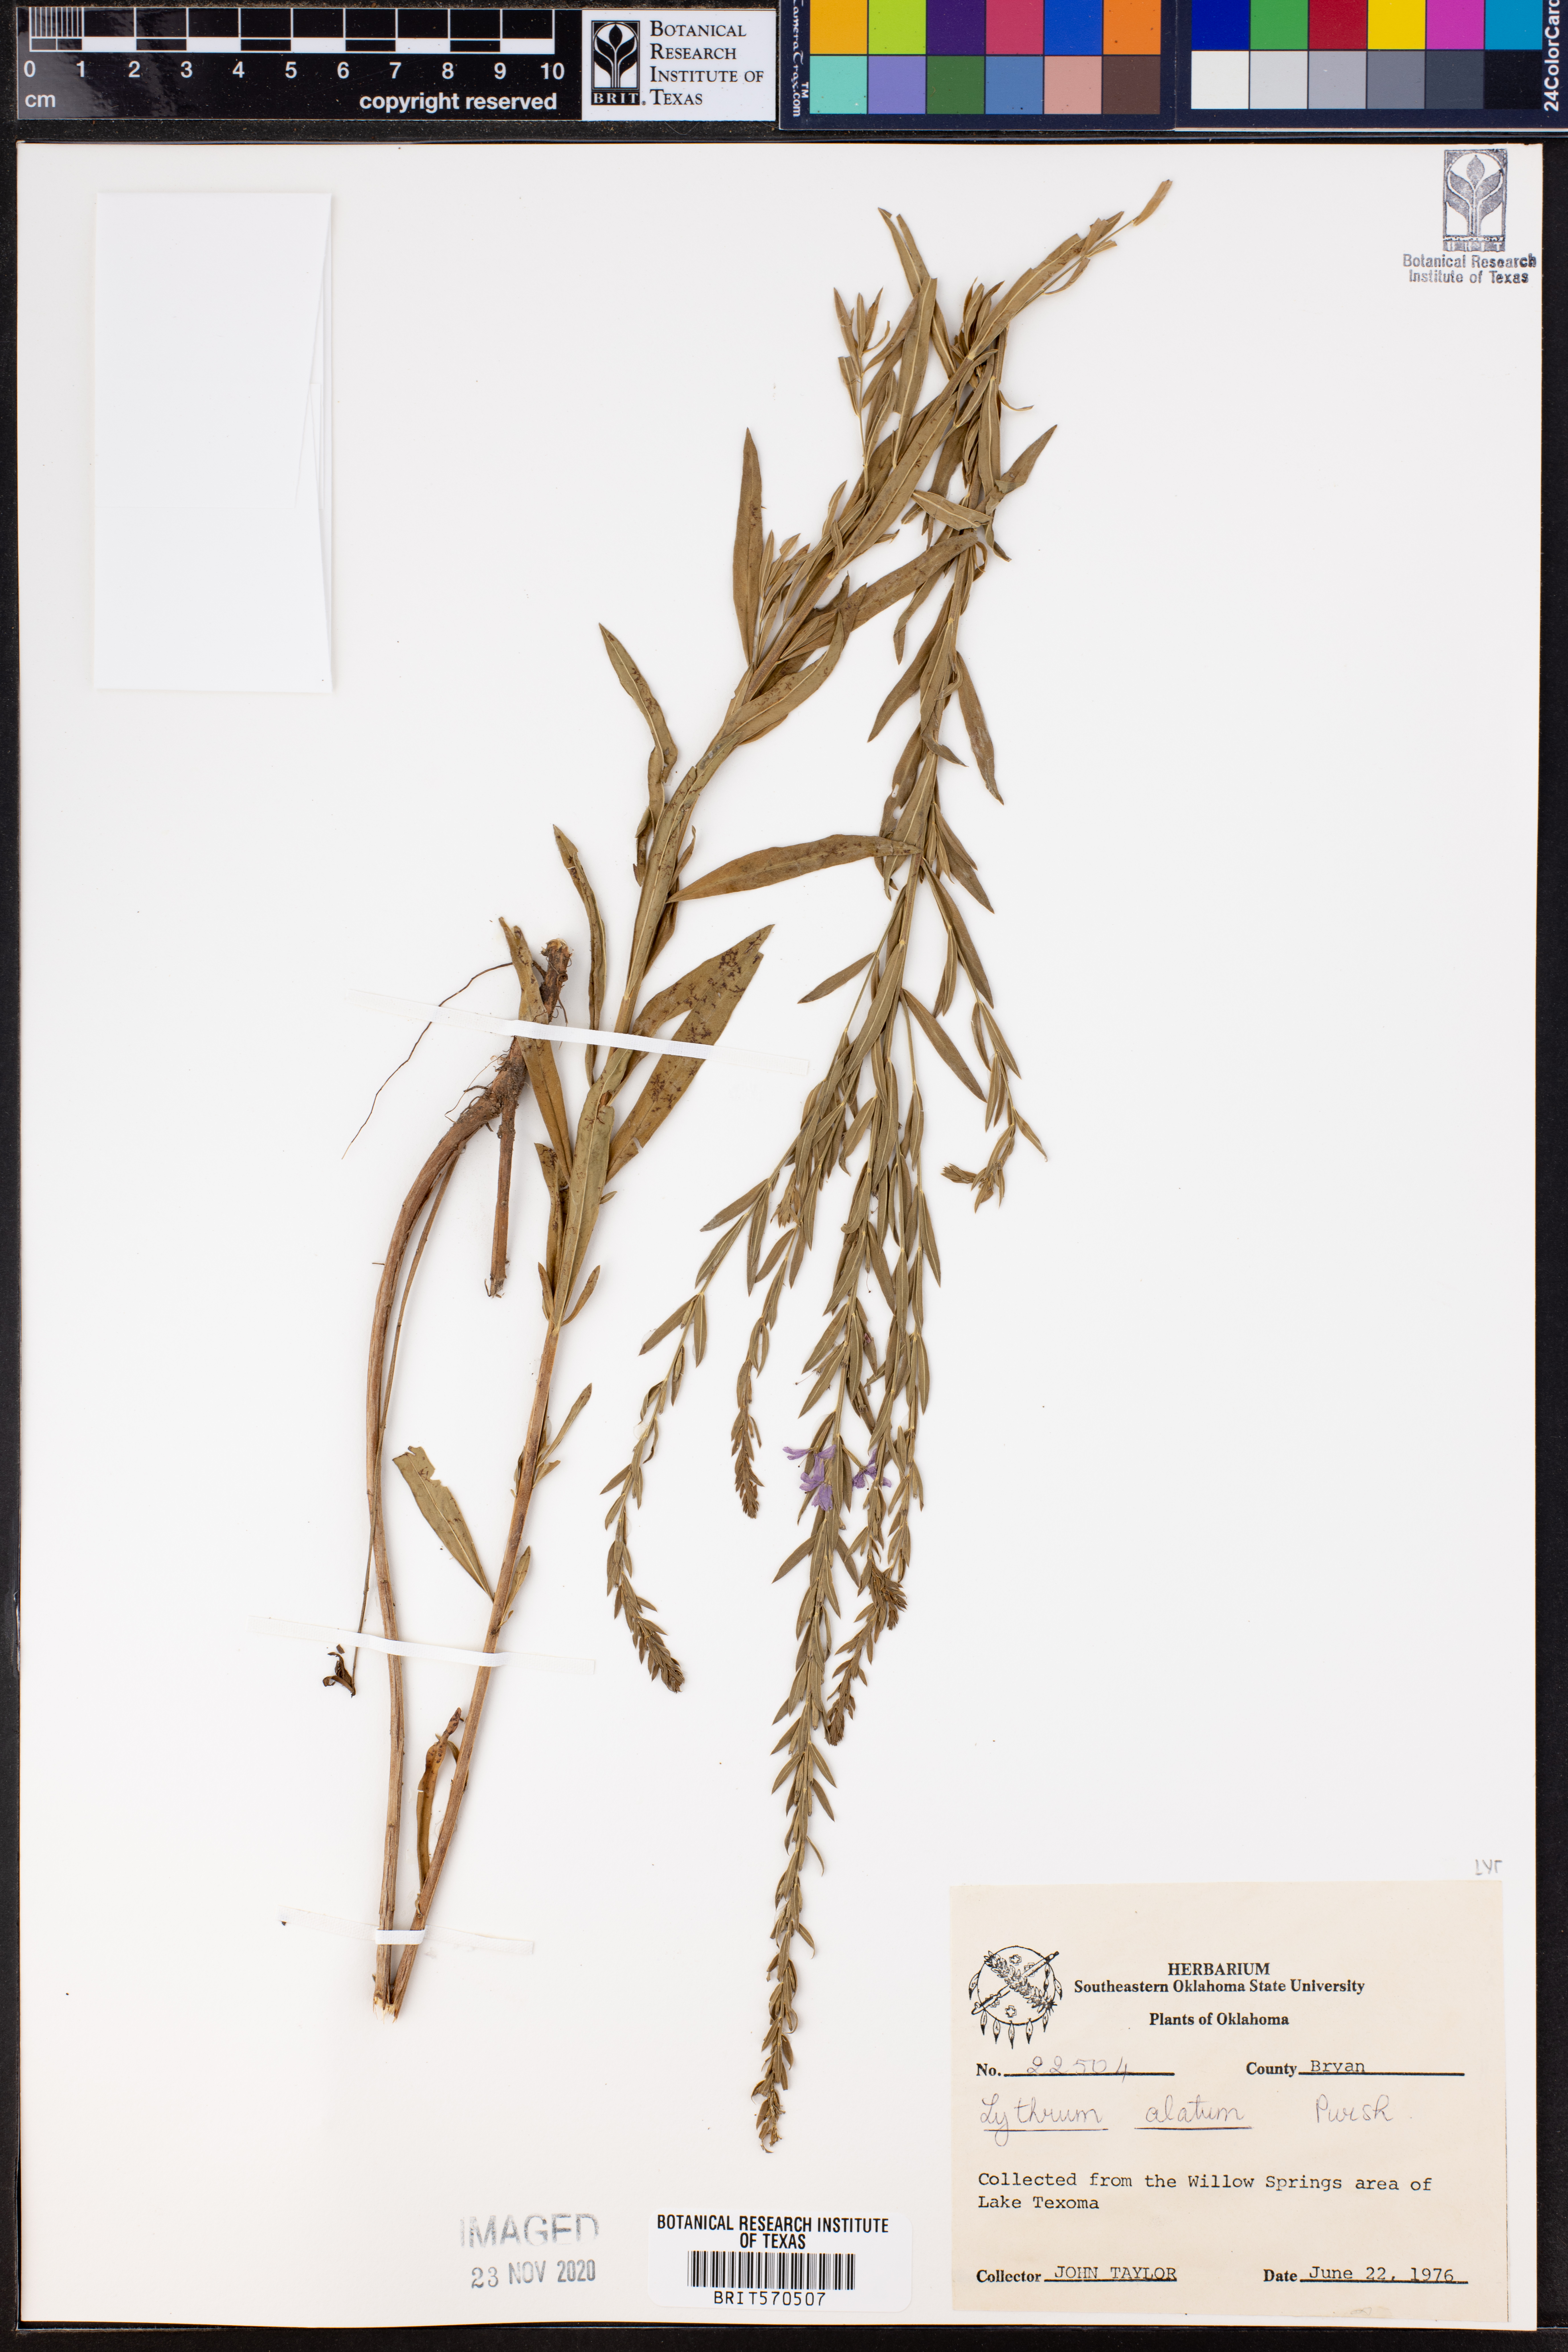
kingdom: Plantae
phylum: Tracheophyta
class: Magnoliopsida
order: Myrtales
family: Lythraceae
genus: Lythrum
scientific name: Lythrum alatum
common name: Winged loosestrife
